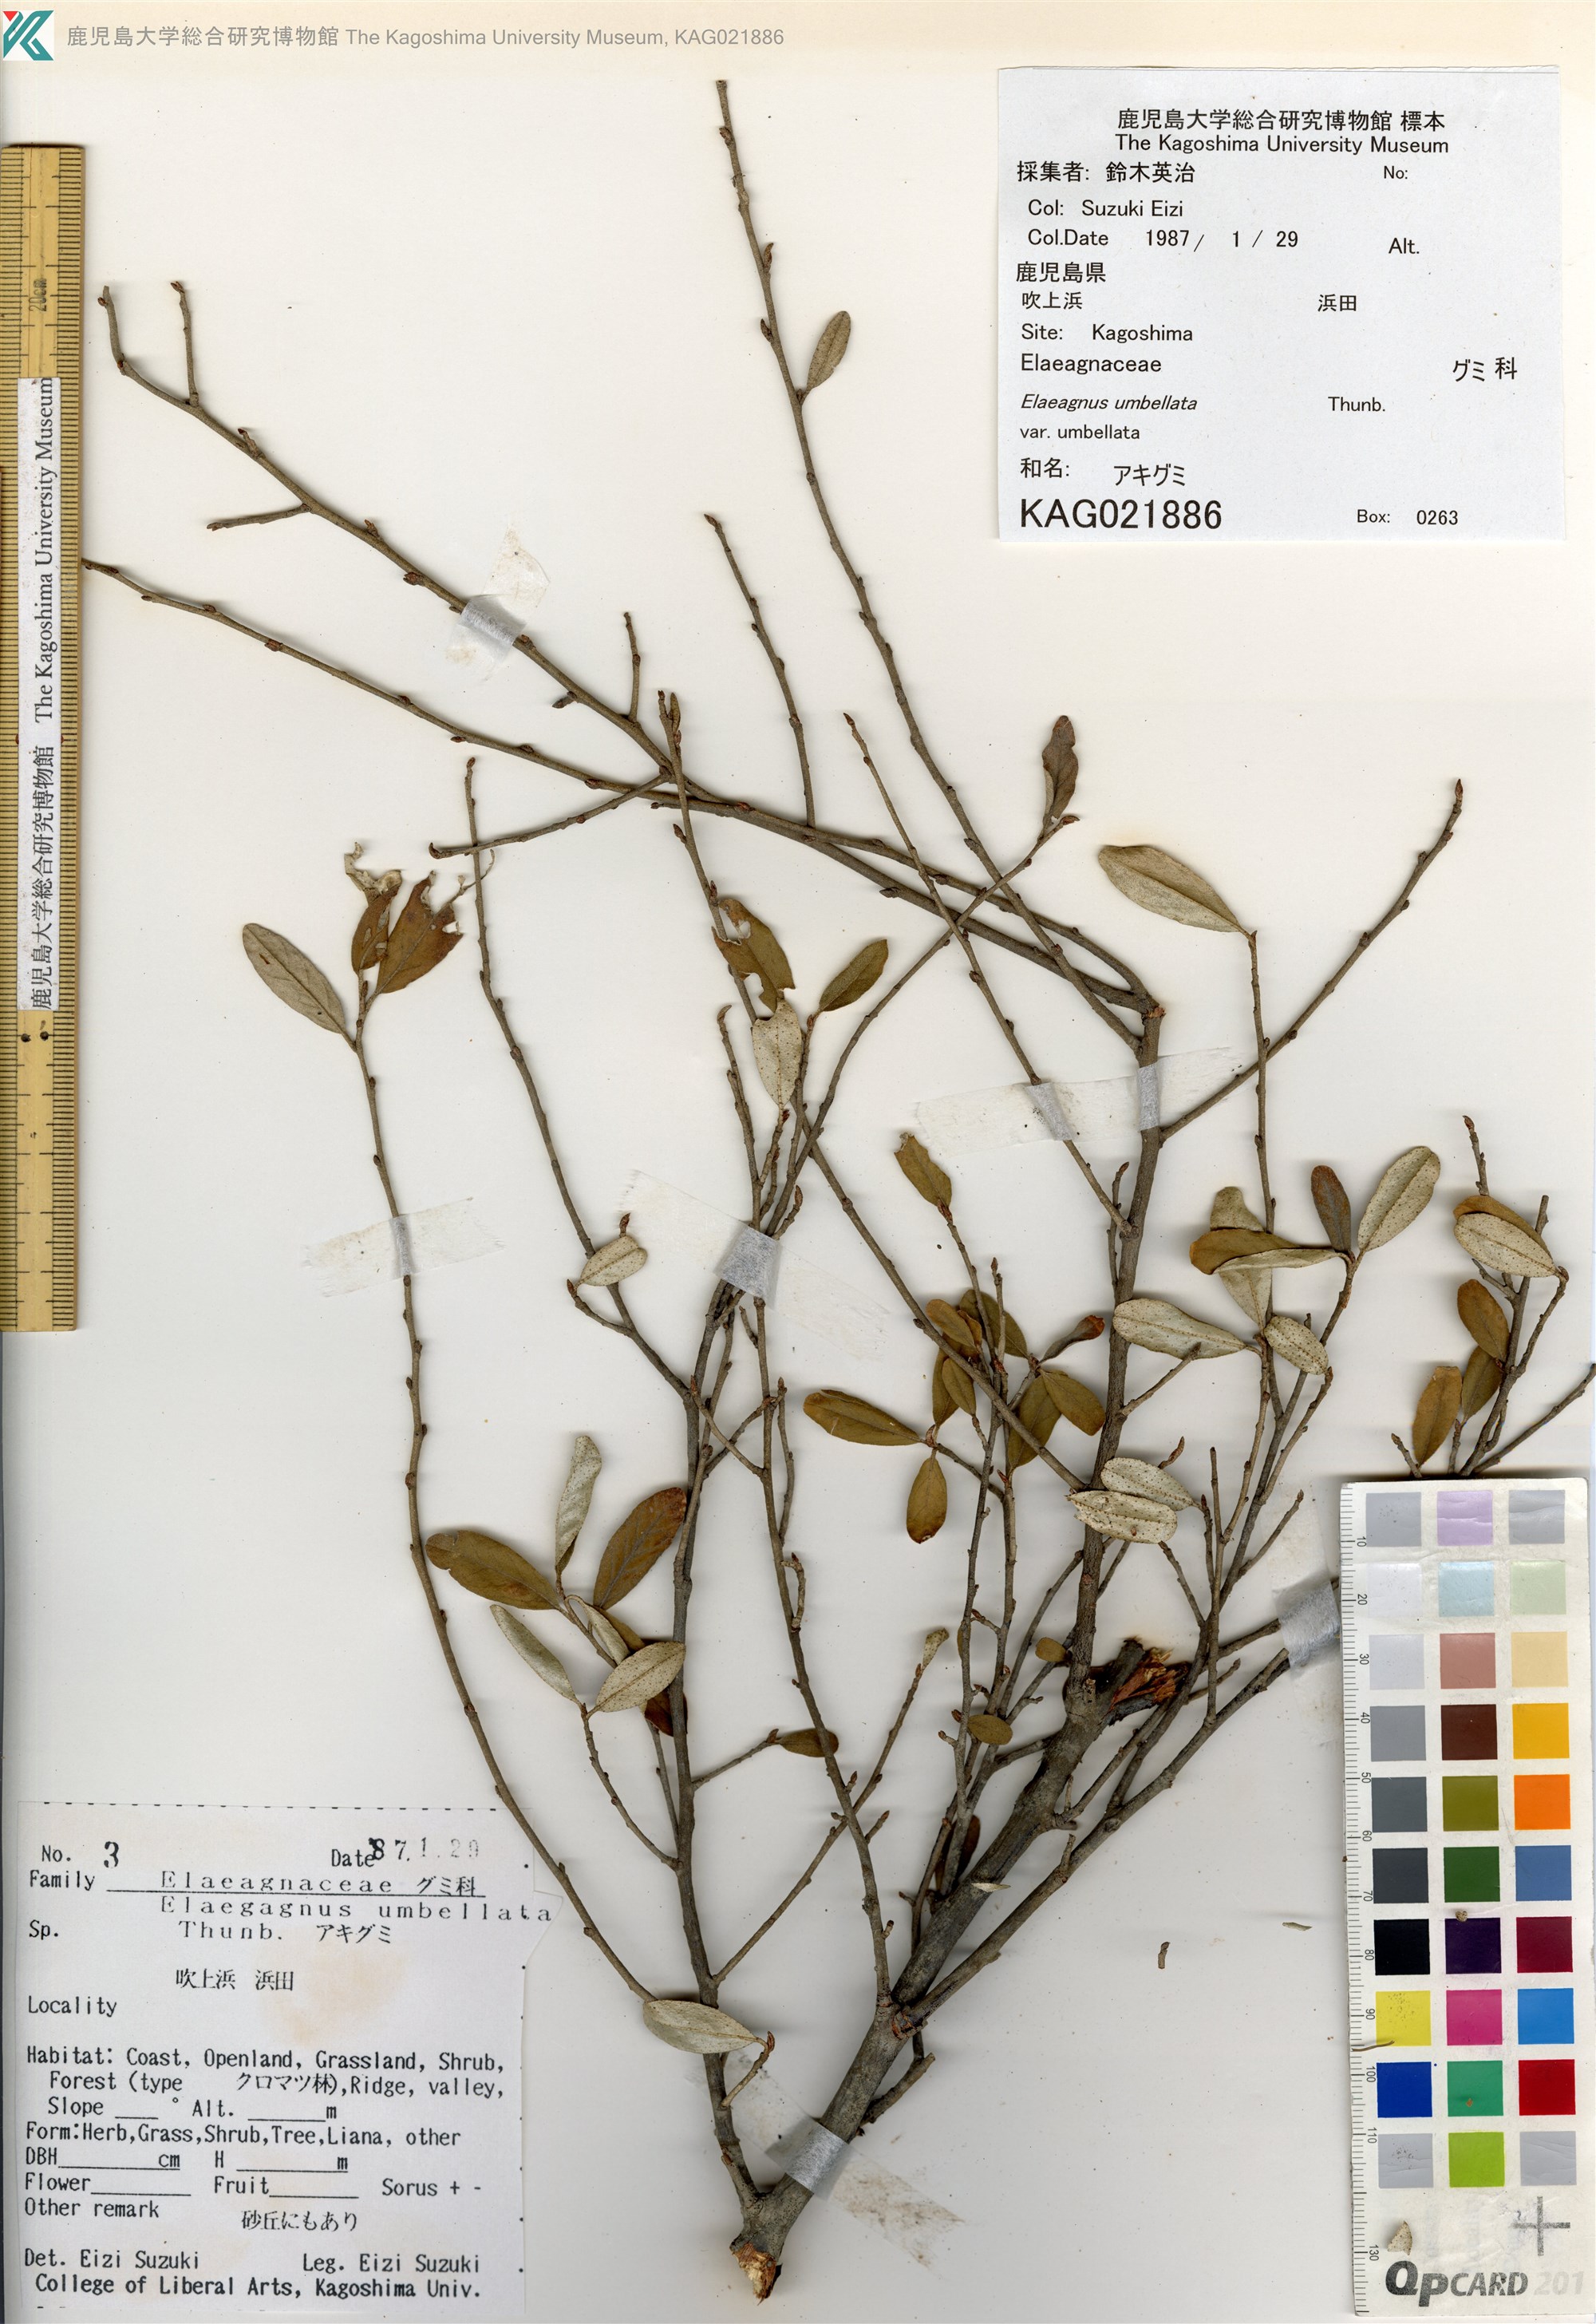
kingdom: Plantae
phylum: Tracheophyta
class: Magnoliopsida
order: Rosales
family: Elaeagnaceae
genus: Elaeagnus
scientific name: Elaeagnus umbellata
